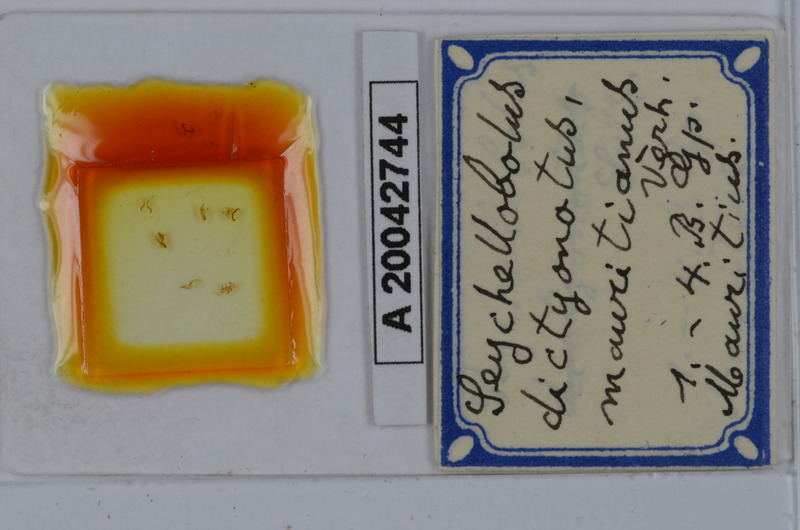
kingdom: Animalia
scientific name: Animalia
